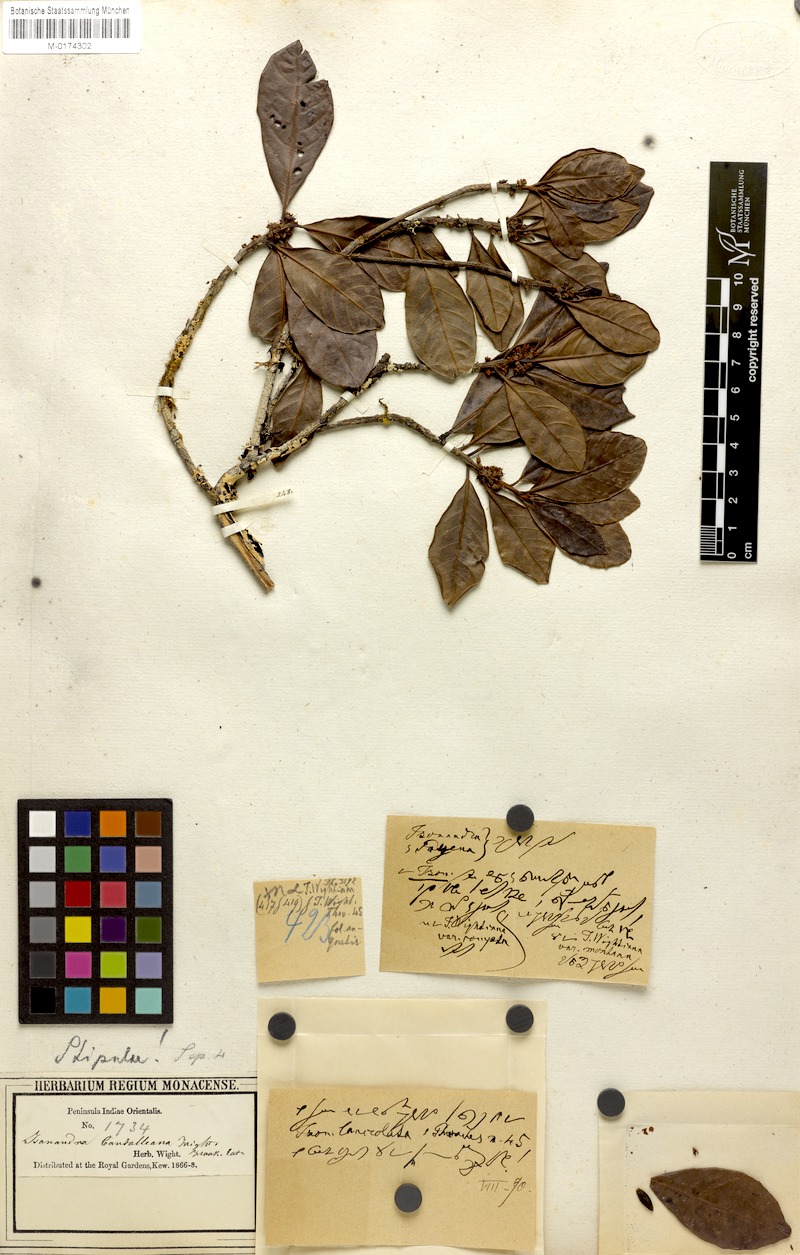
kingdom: Plantae
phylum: Tracheophyta
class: Magnoliopsida
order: Ericales
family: Sapotaceae
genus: Isonandra
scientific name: Isonandra perrottetiana
